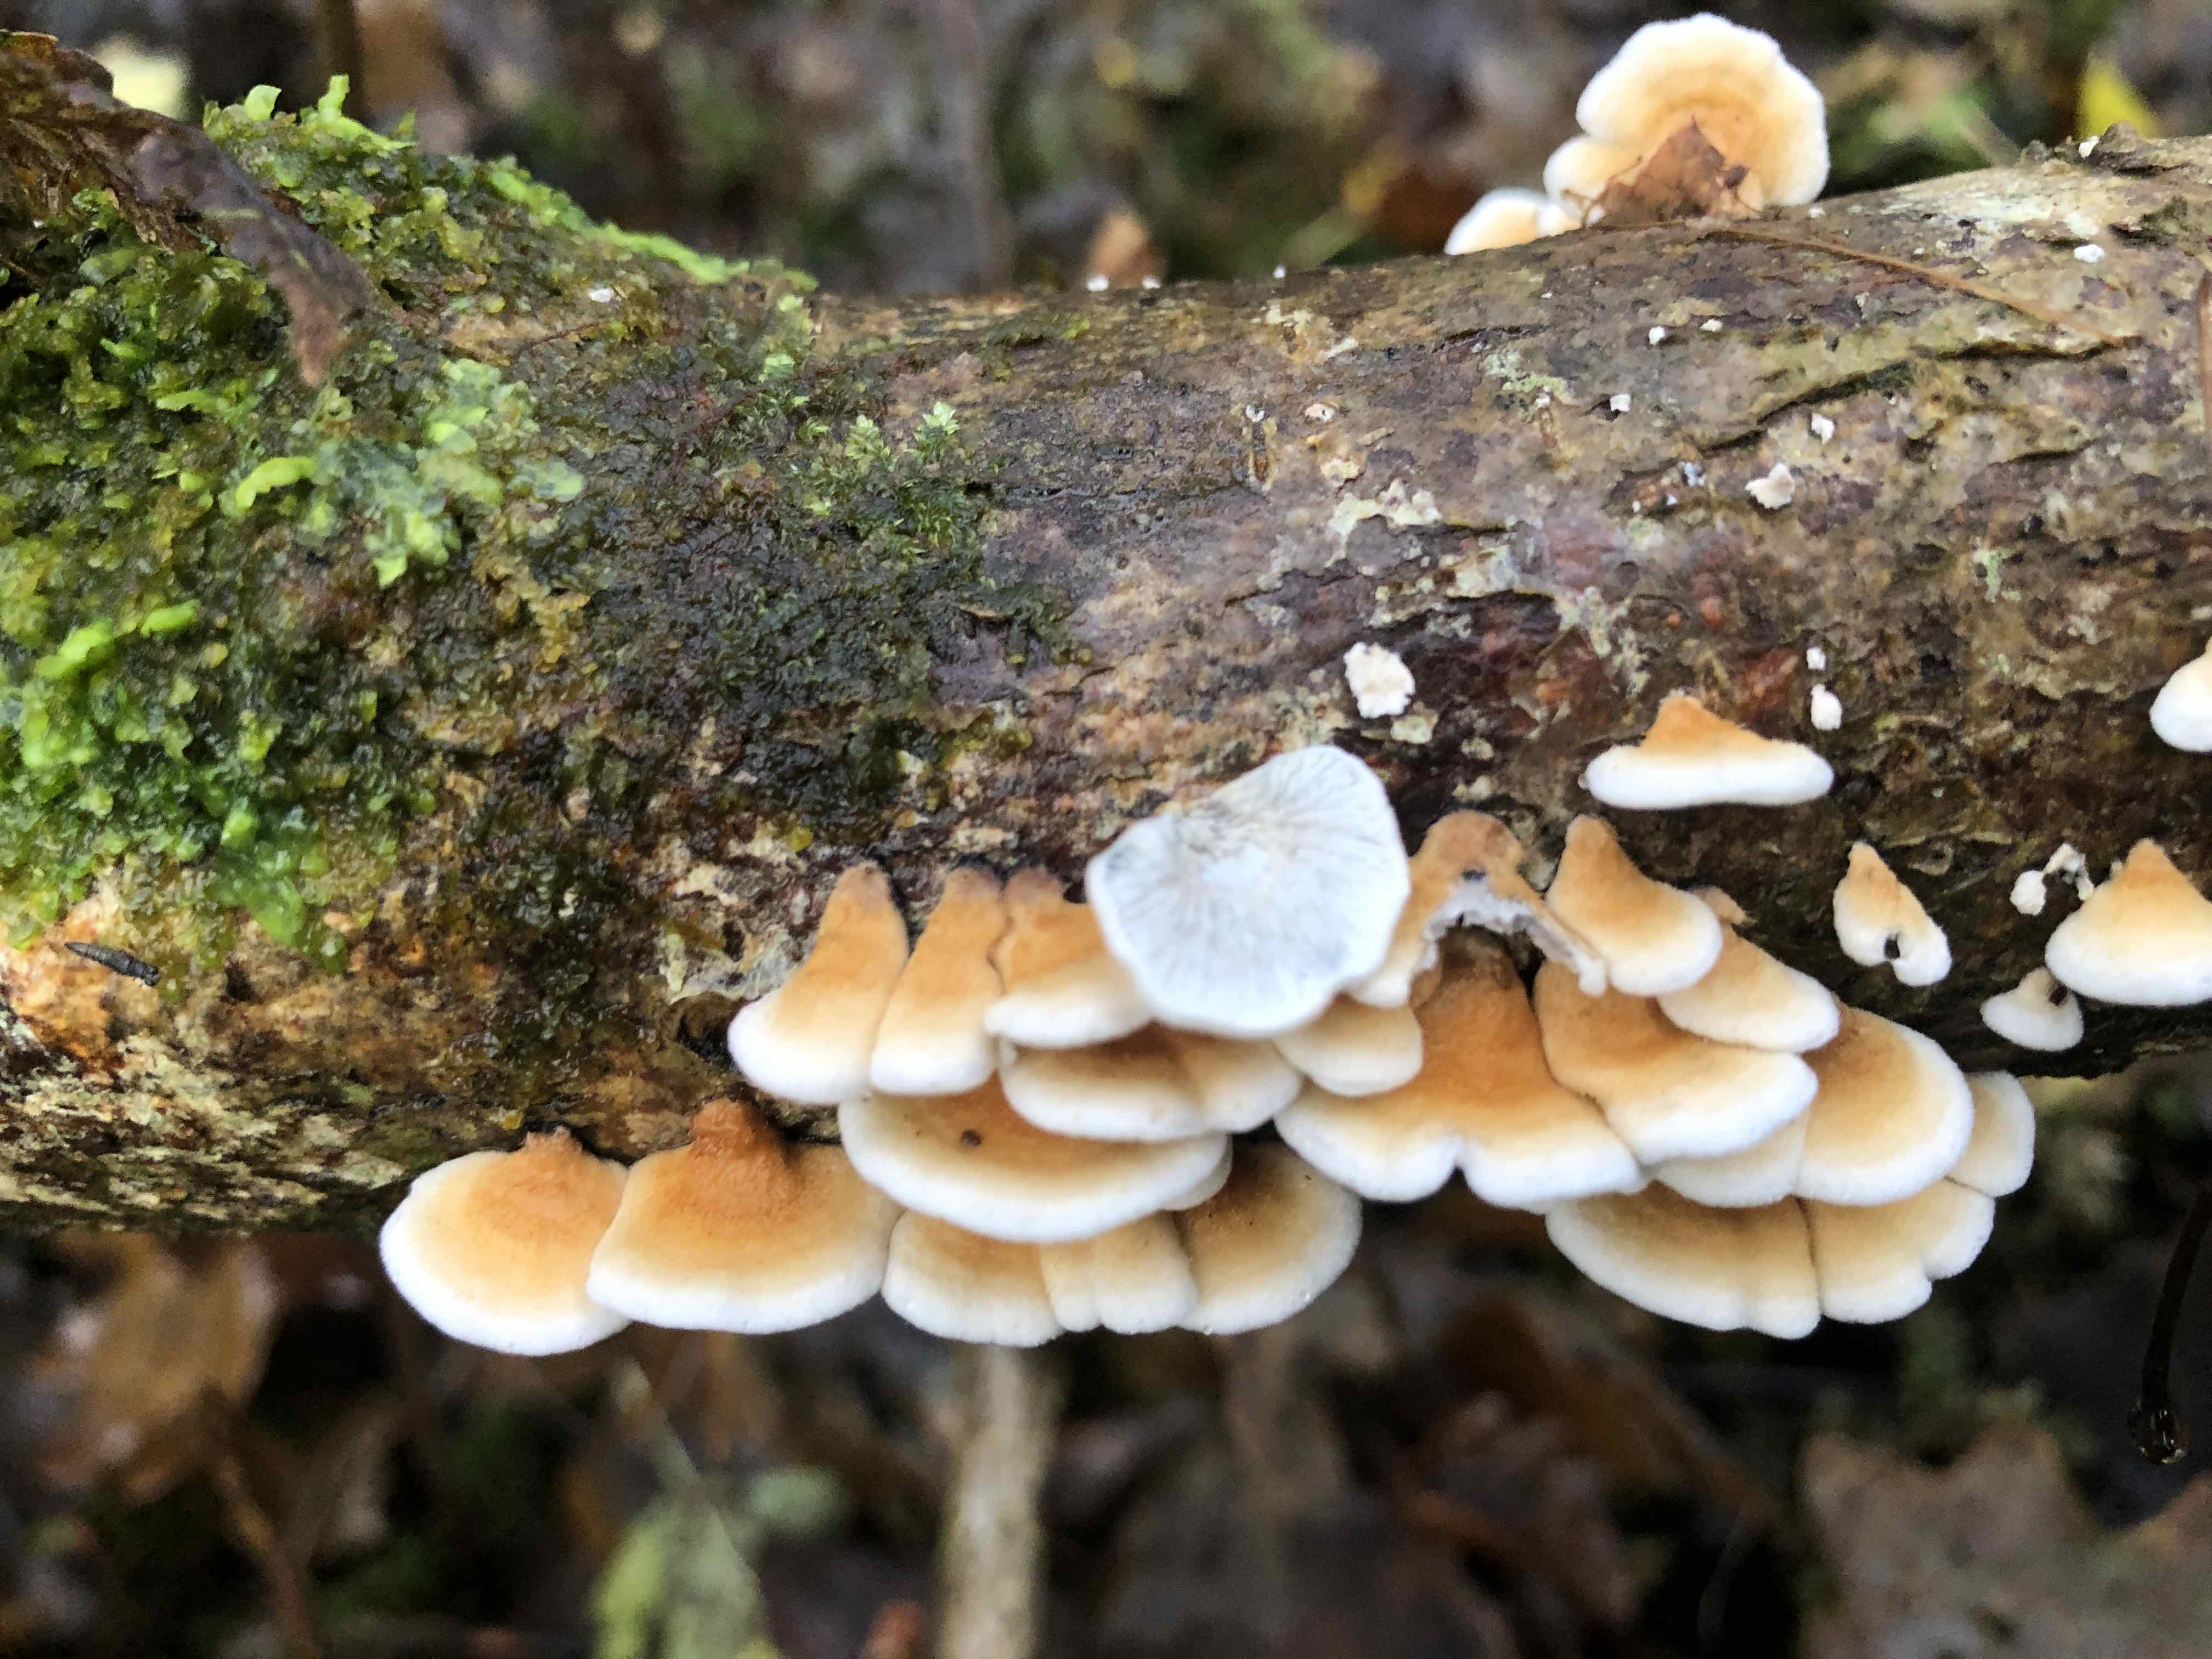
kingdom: Fungi
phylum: Basidiomycota
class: Agaricomycetes
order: Amylocorticiales
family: Amylocorticiaceae
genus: Plicaturopsis
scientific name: Plicaturopsis crispa
